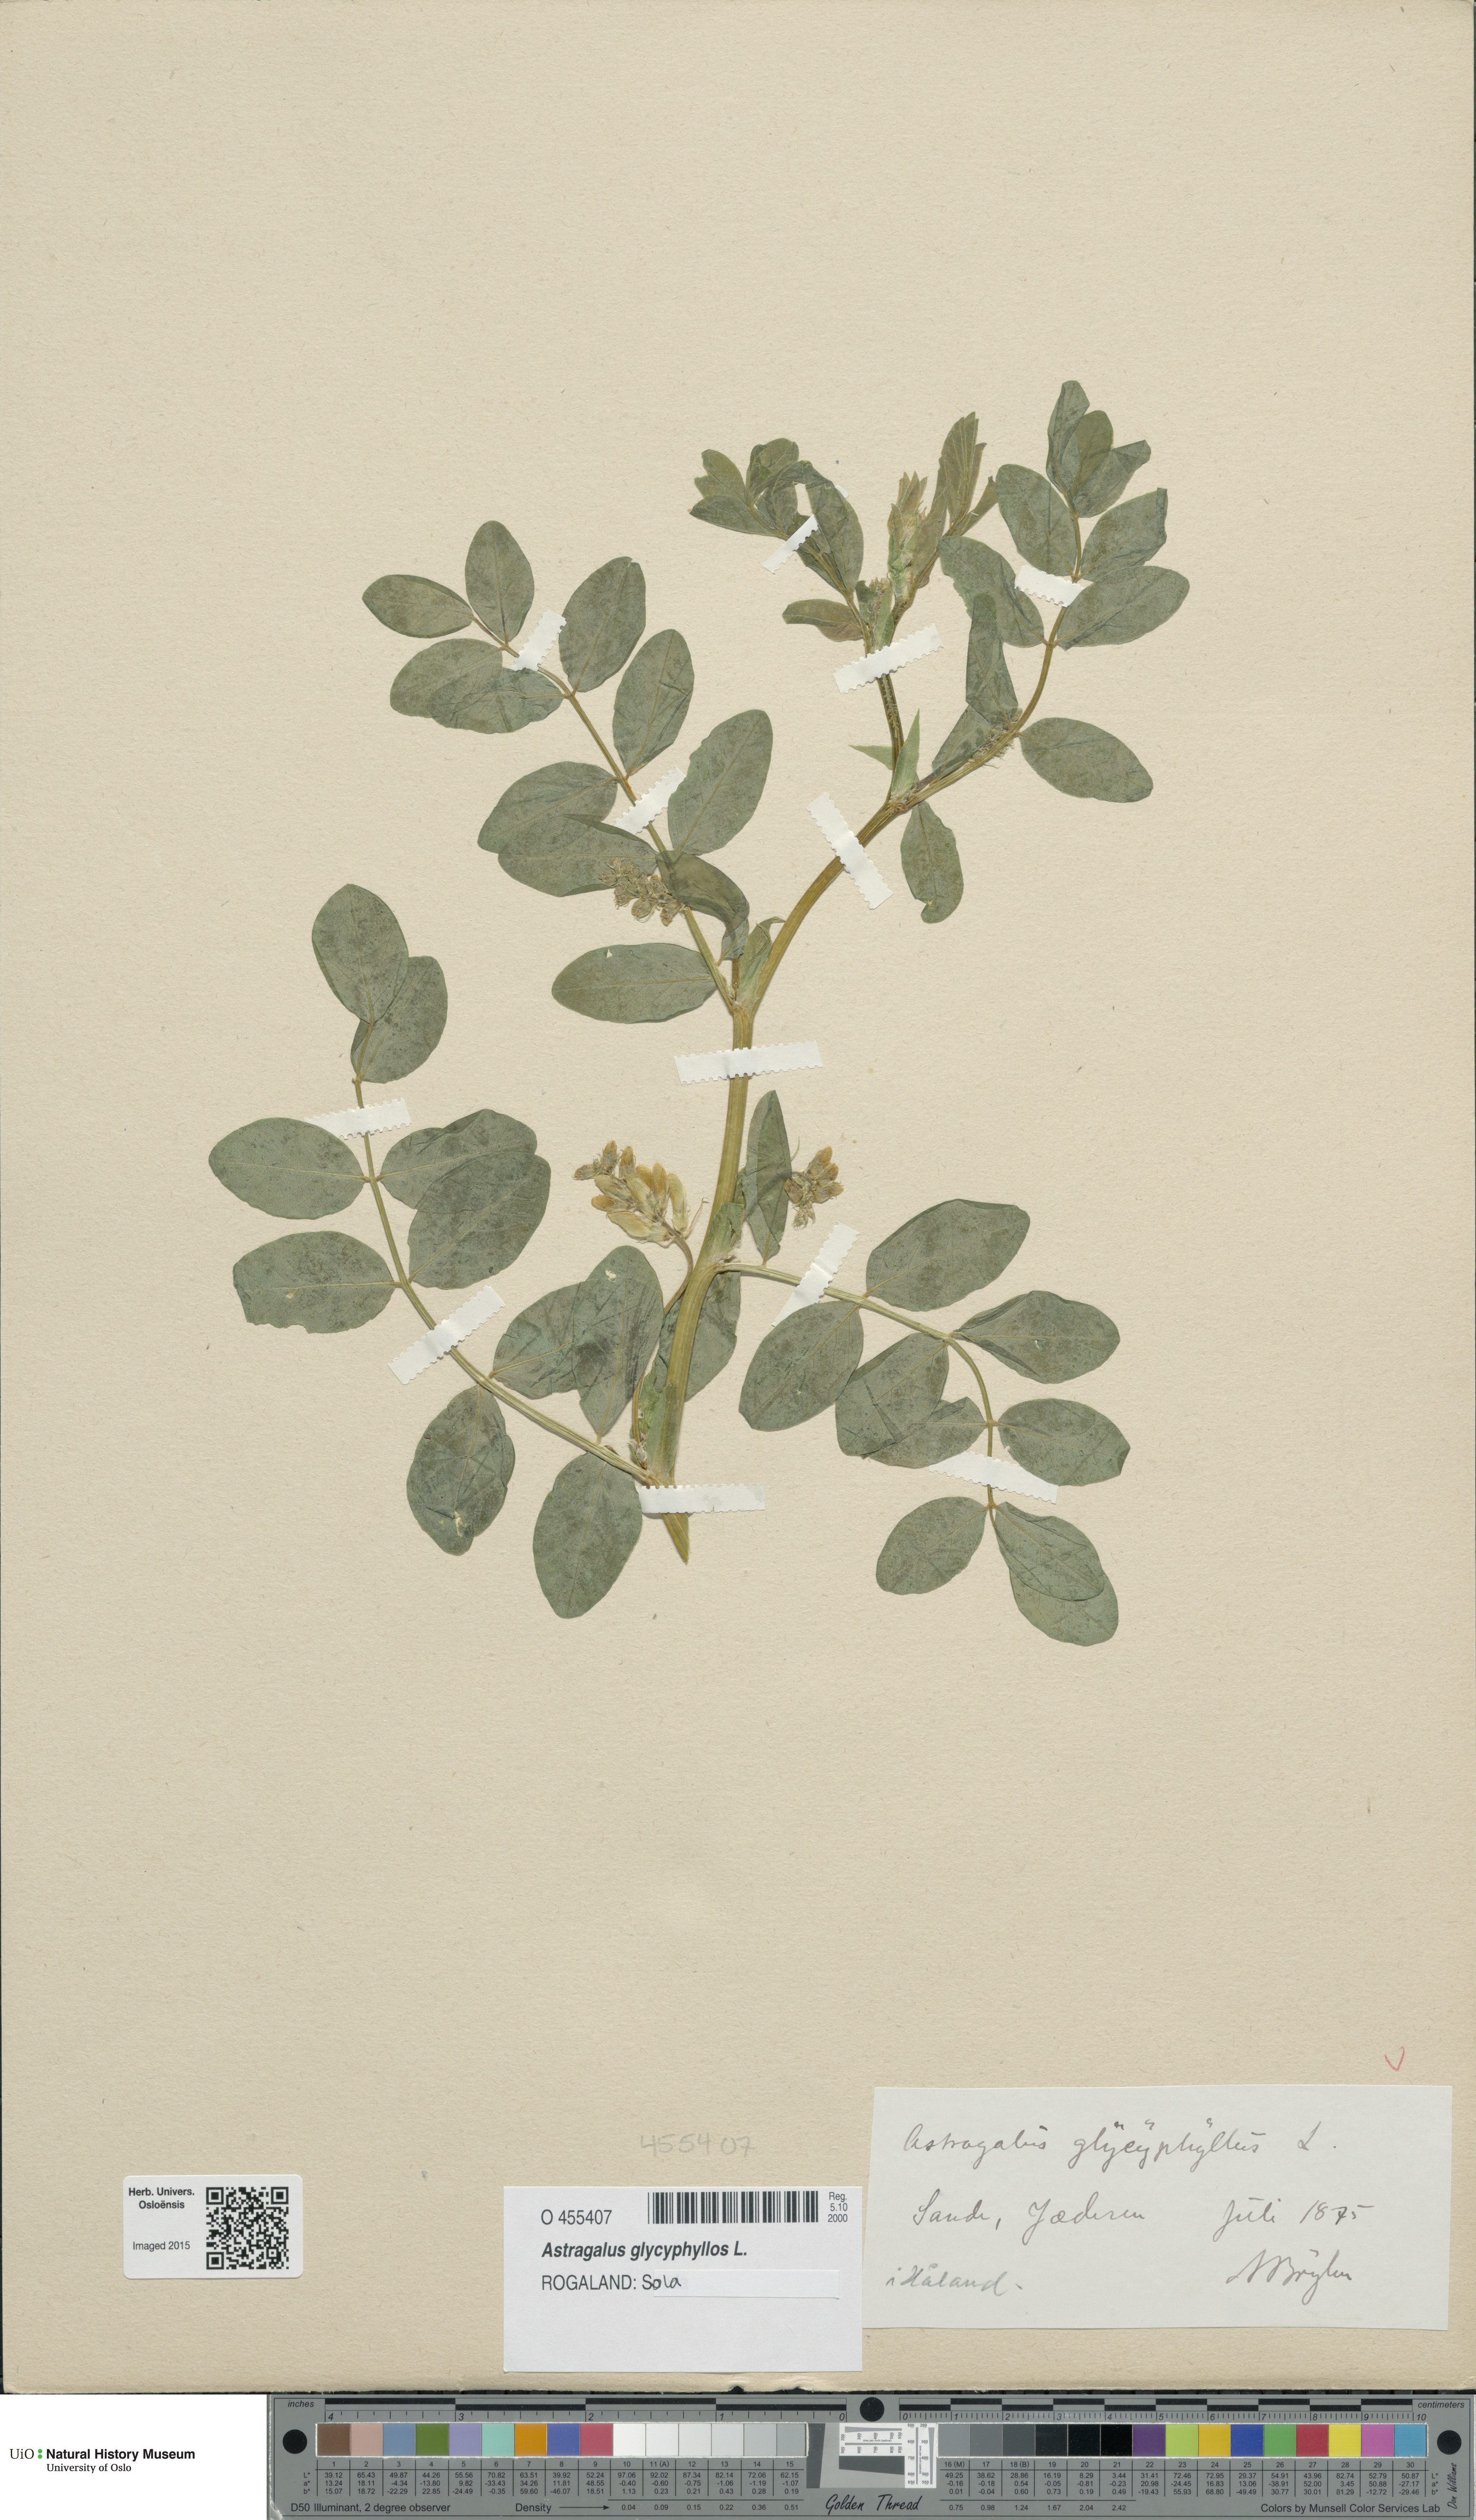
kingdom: Plantae
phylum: Tracheophyta
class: Magnoliopsida
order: Fabales
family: Fabaceae
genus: Astragalus
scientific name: Astragalus glycyphyllos
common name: Wild liquorice
